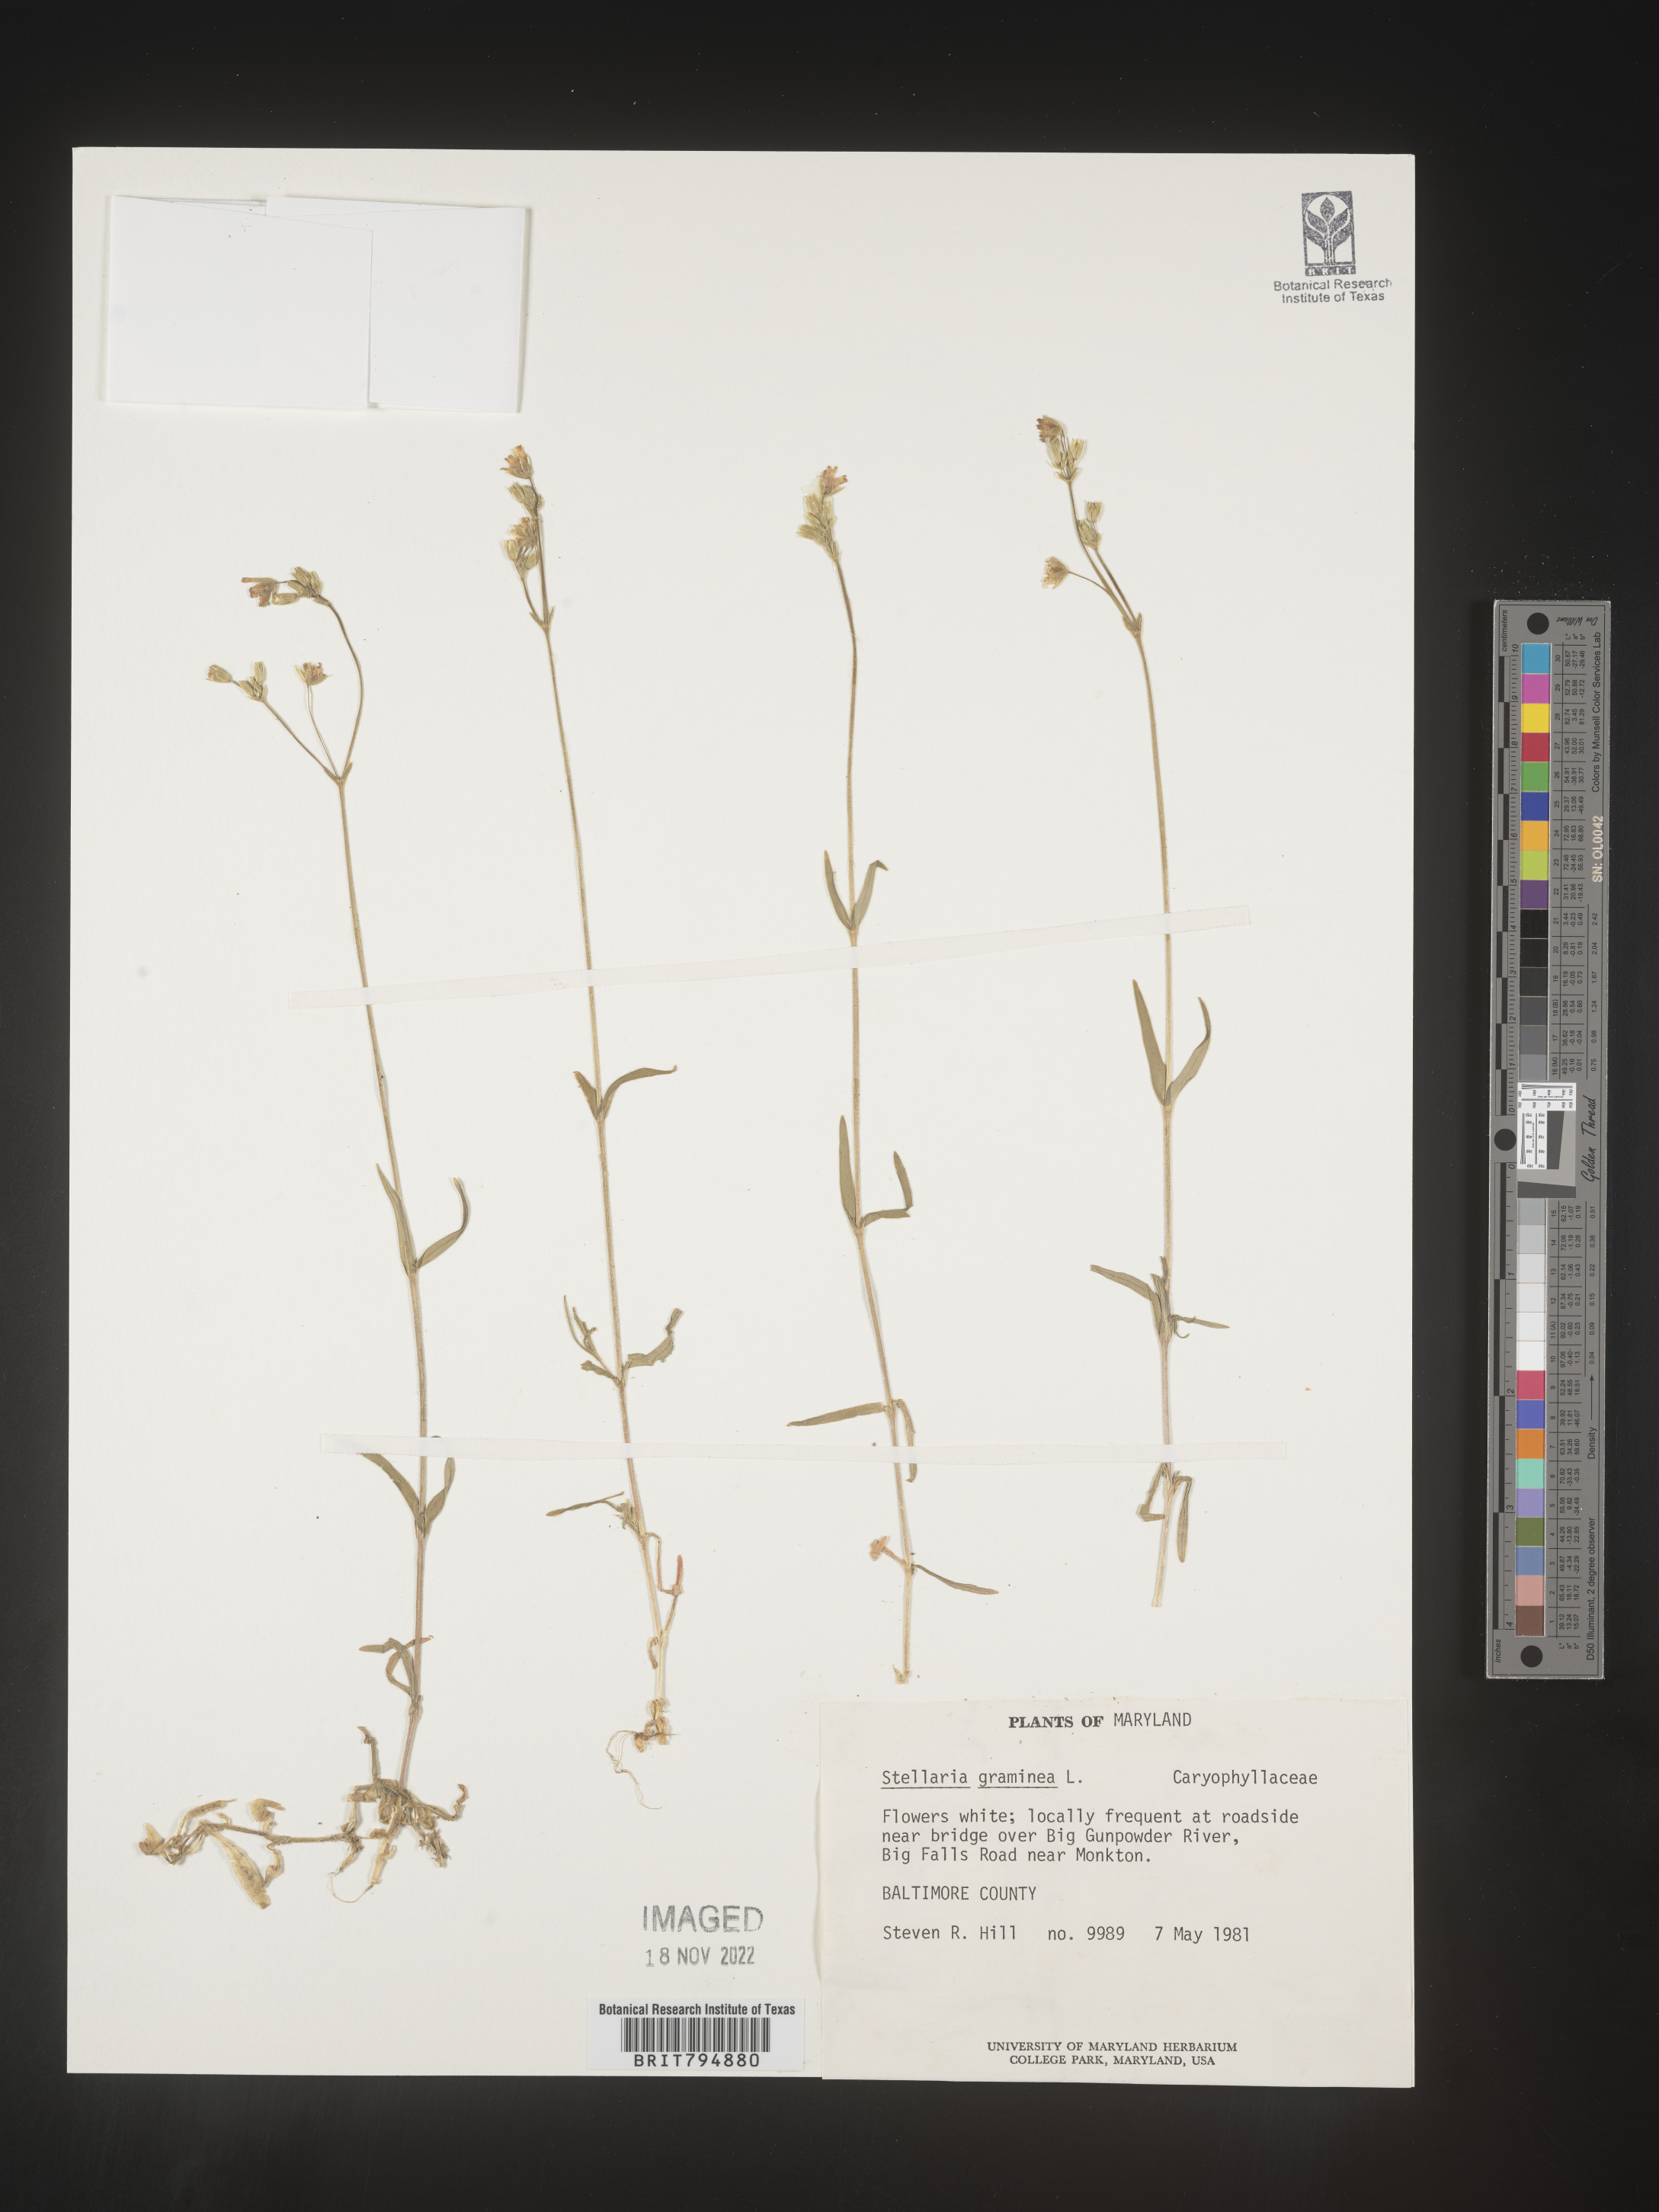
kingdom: Plantae
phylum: Tracheophyta
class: Magnoliopsida
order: Caryophyllales
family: Caryophyllaceae
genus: Stellaria
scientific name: Stellaria graminea
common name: Grass-like starwort
